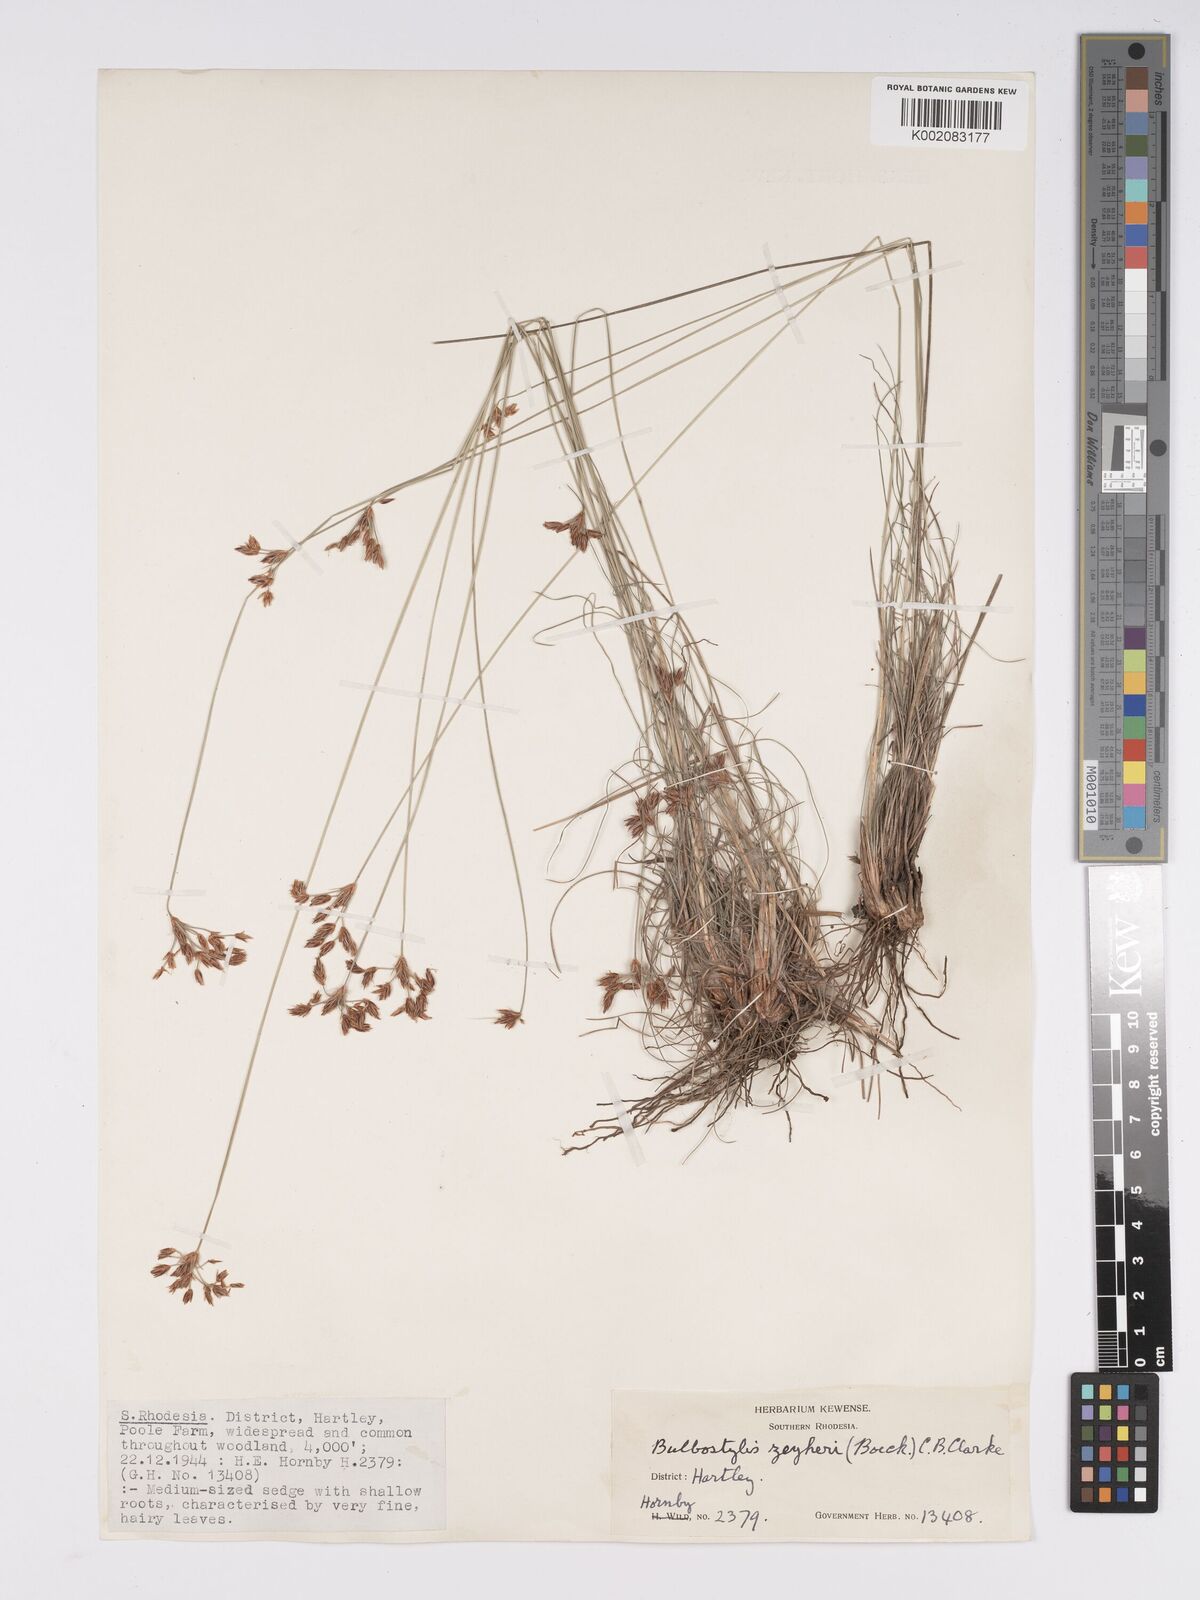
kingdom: Plantae
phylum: Tracheophyta
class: Liliopsida
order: Poales
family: Cyperaceae
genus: Bulbostylis
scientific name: Bulbostylis contexta
